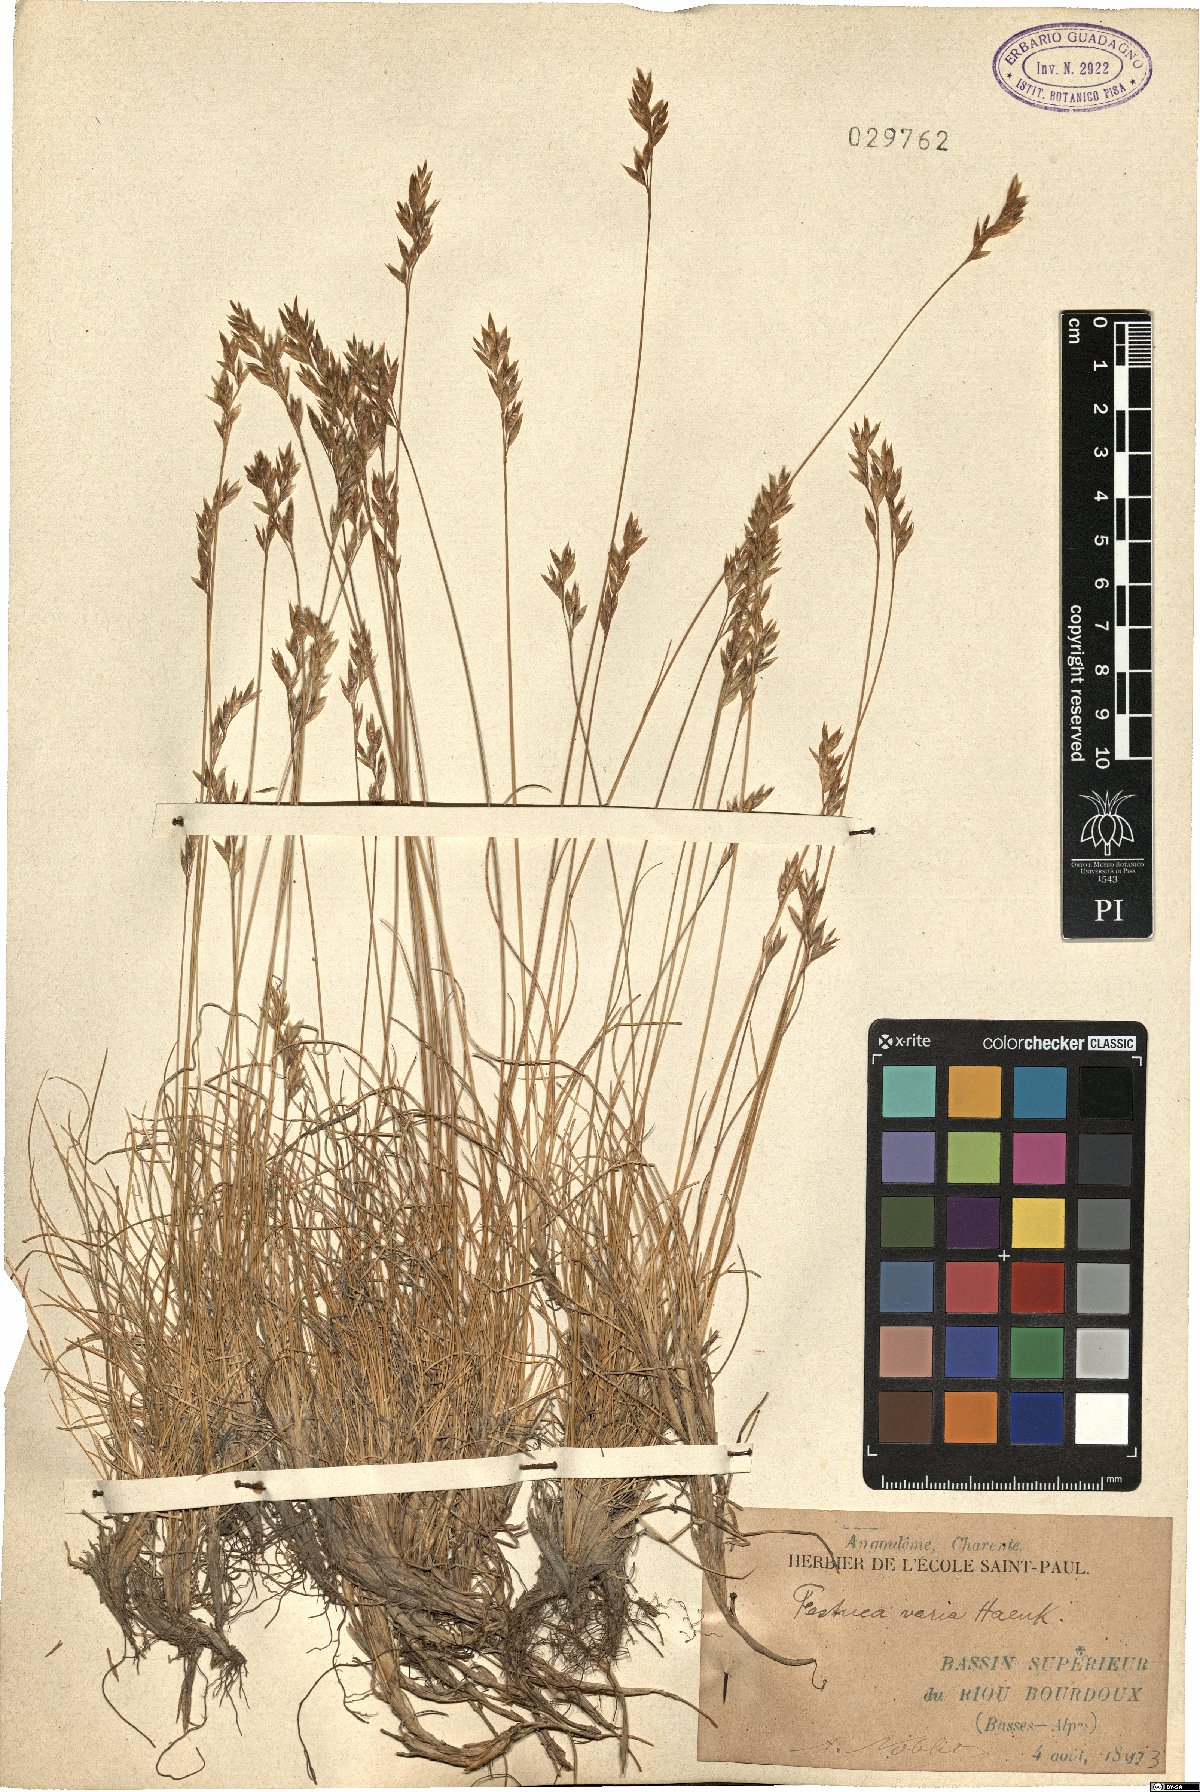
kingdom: Plantae
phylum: Tracheophyta
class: Liliopsida
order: Poales
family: Poaceae
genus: Festuca
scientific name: Festuca varia
